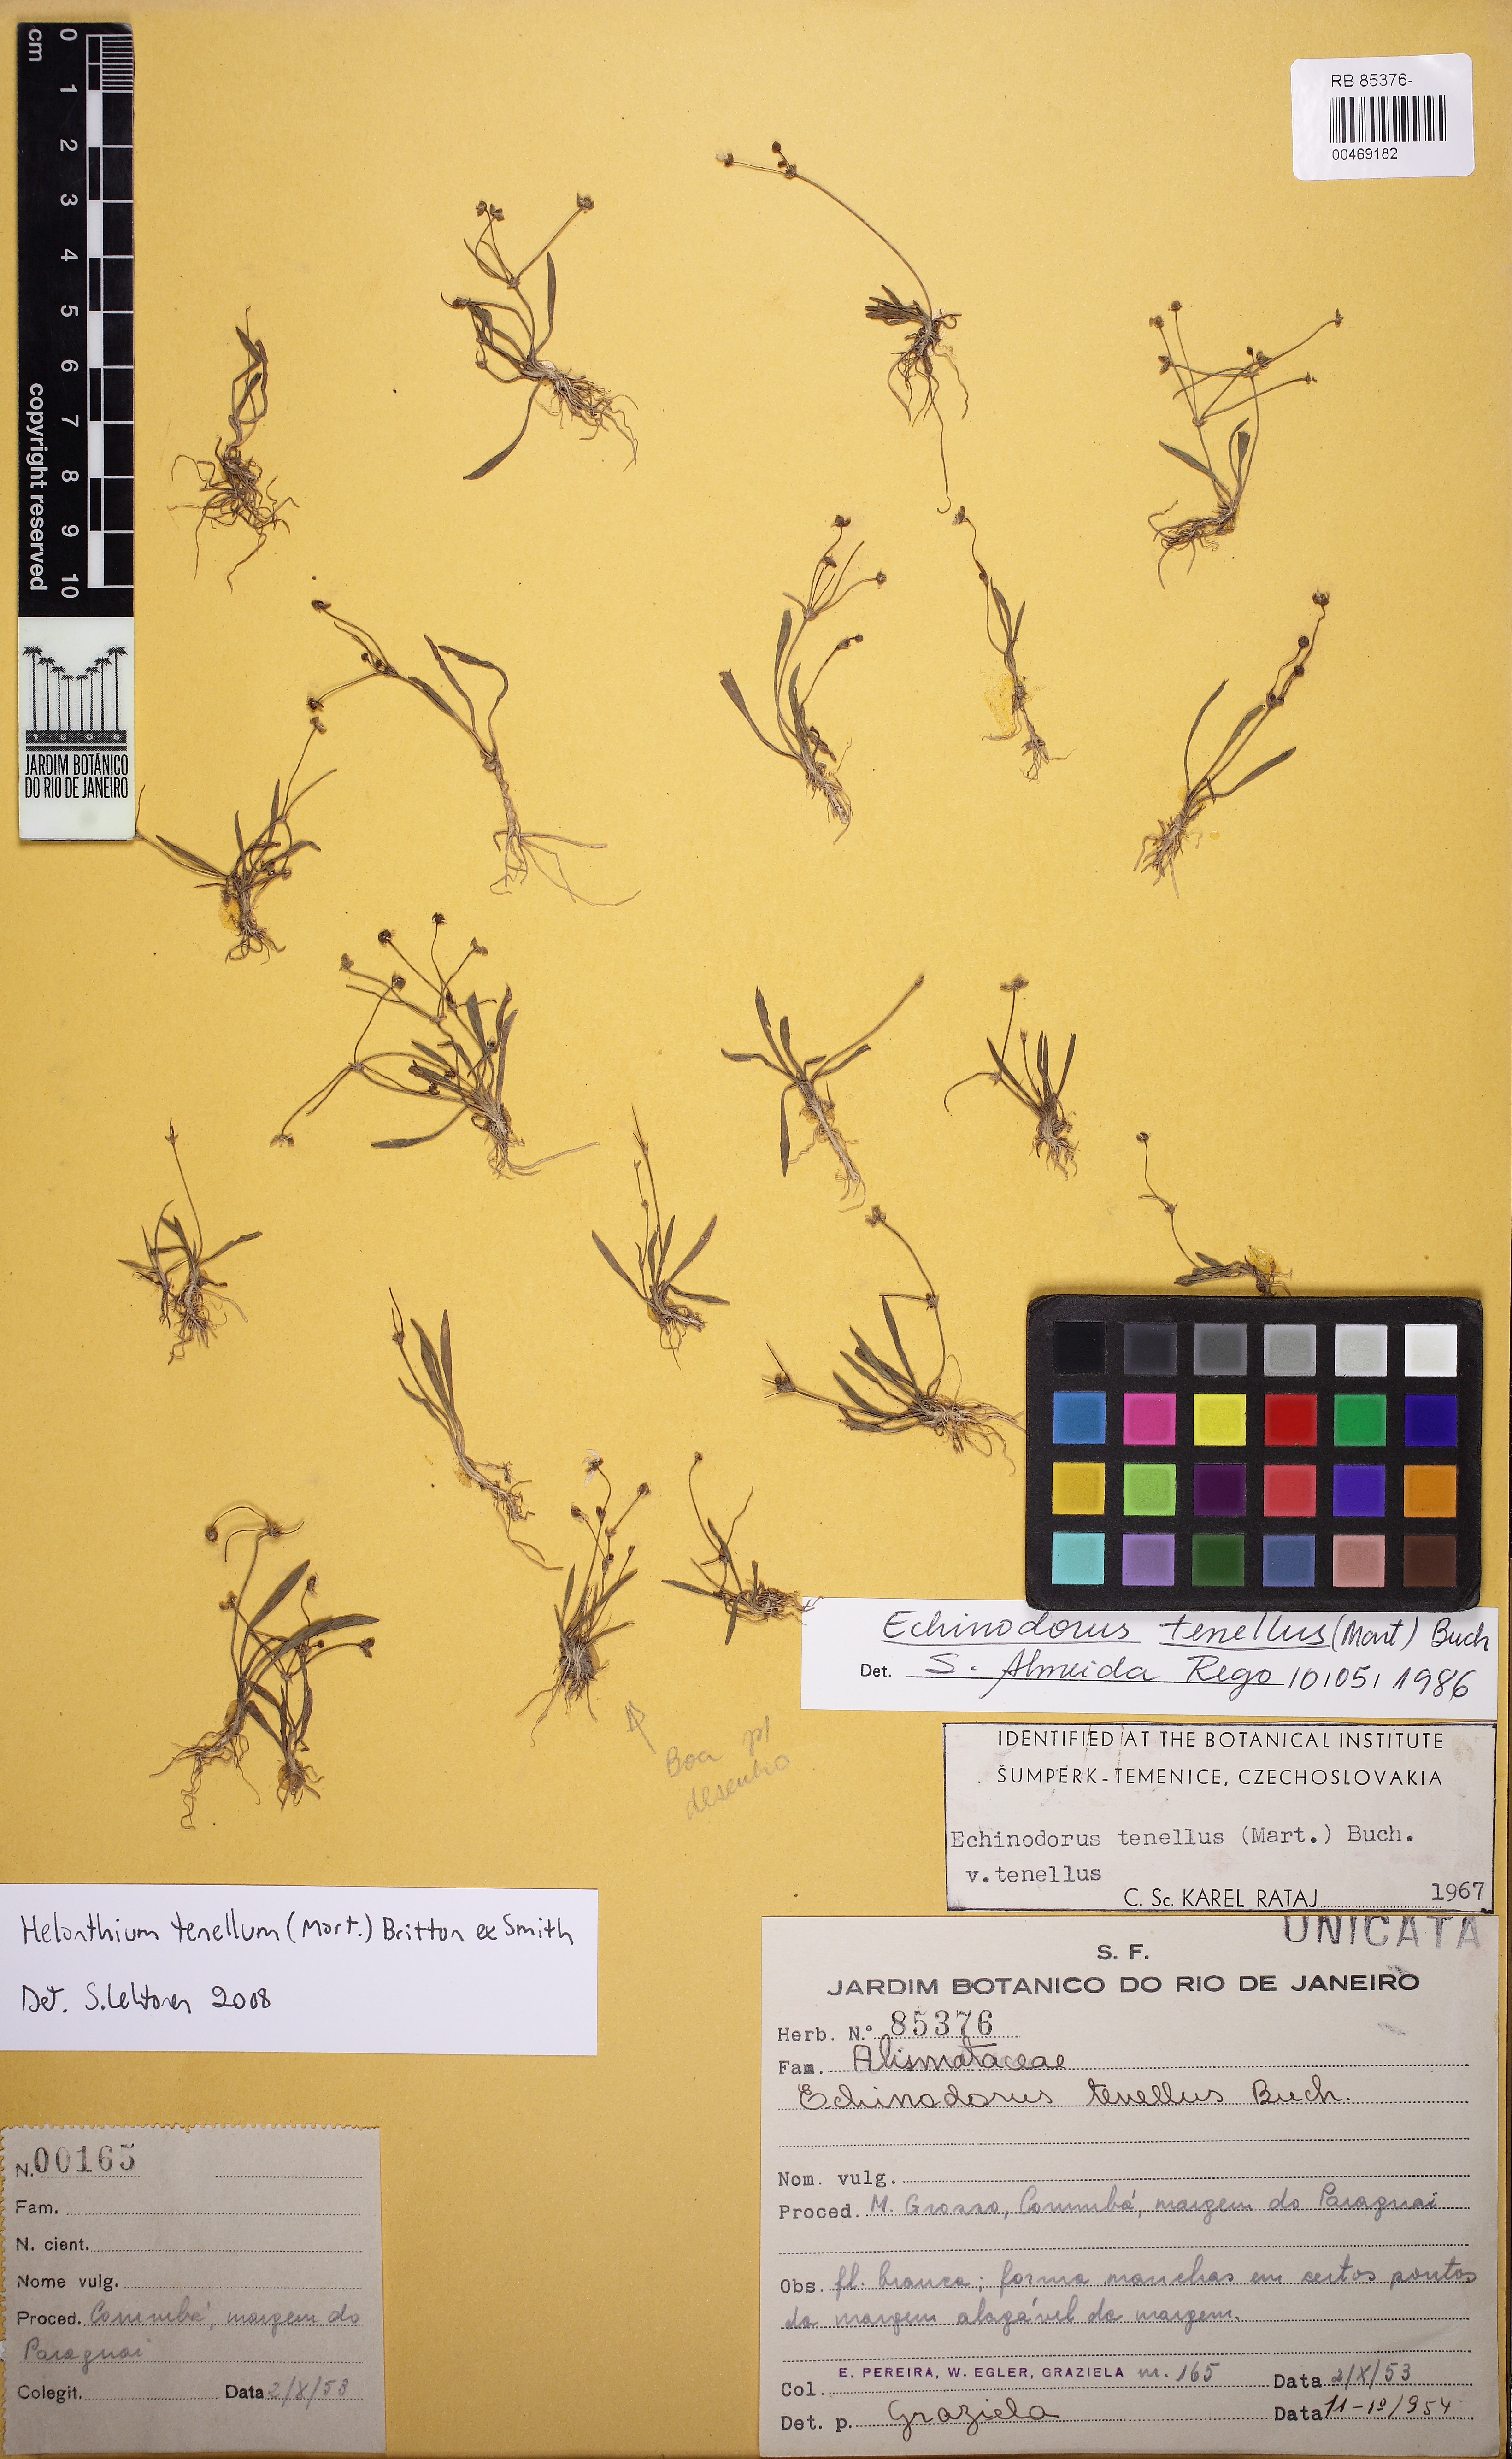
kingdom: Plantae
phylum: Tracheophyta
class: Liliopsida
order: Alismatales
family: Alismataceae
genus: Helanthium
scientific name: Helanthium tenellum
